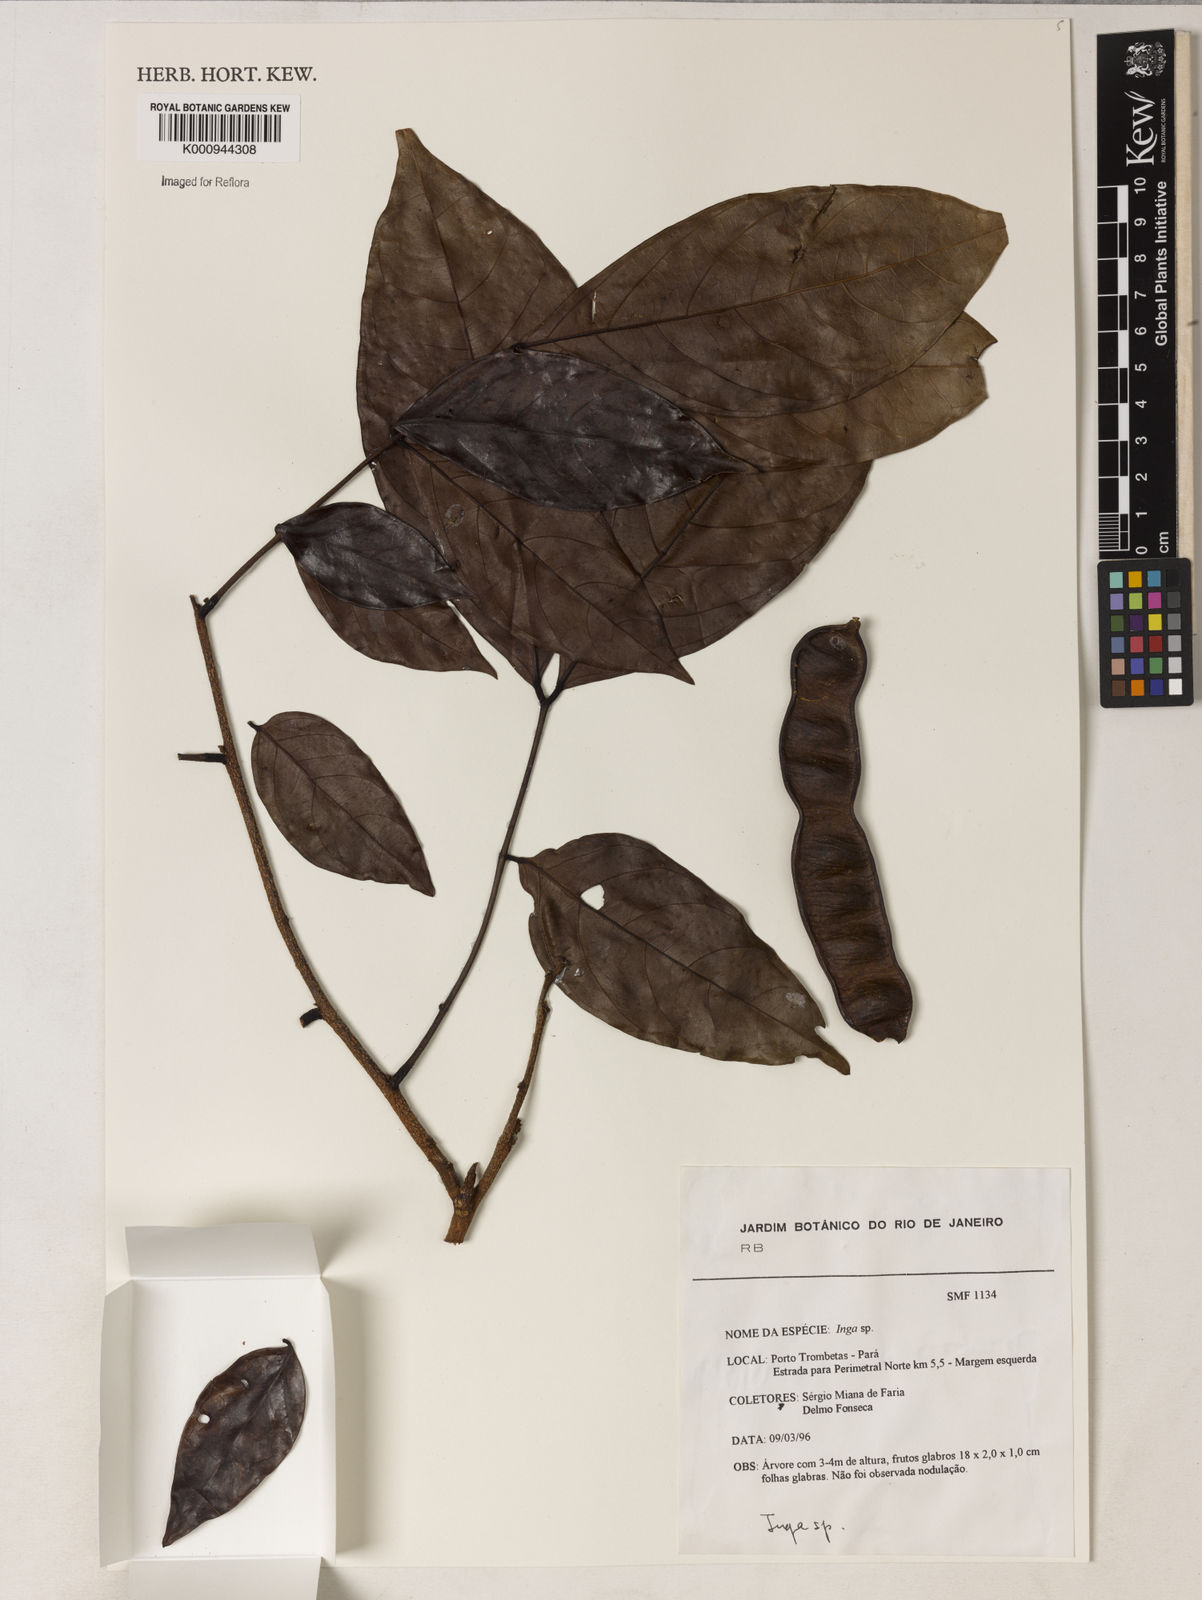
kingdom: Plantae
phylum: Tracheophyta
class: Magnoliopsida
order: Fabales
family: Fabaceae
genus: Inga
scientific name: Inga
